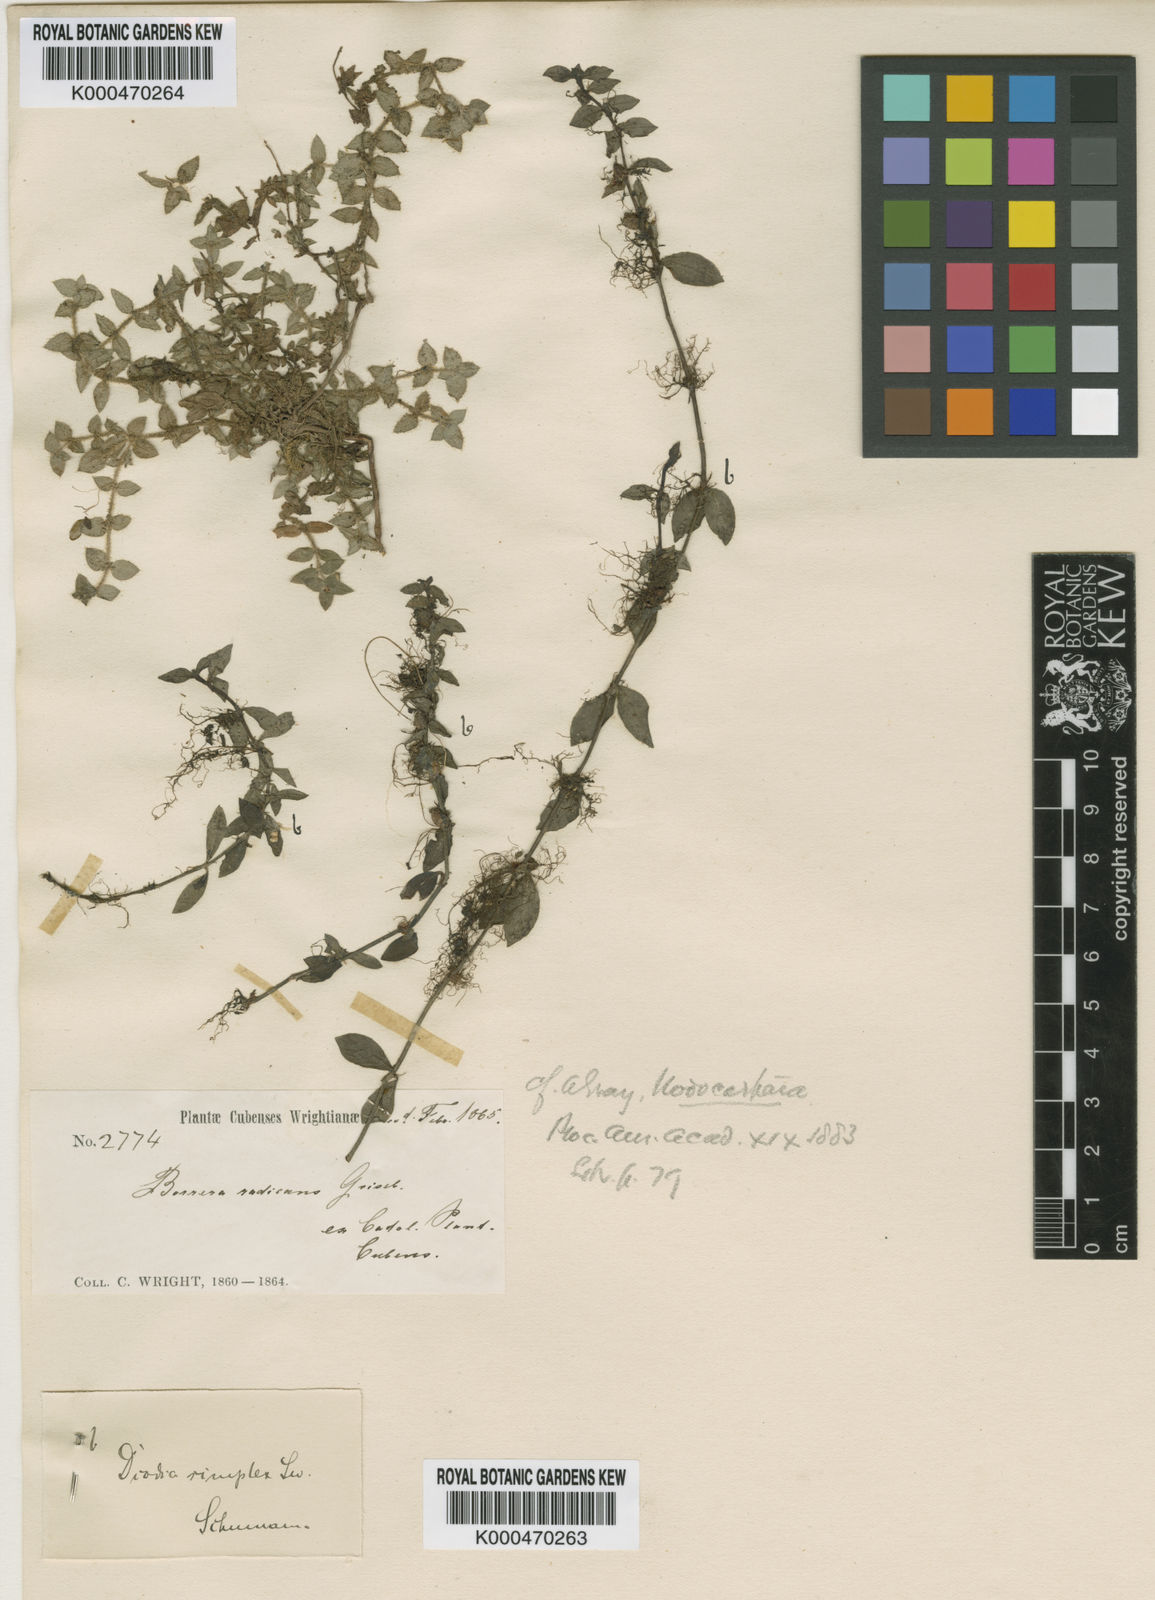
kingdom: Plantae
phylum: Tracheophyta
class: Magnoliopsida
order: Gentianales
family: Rubiaceae
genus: Nodocarpaea
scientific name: Nodocarpaea radicans
